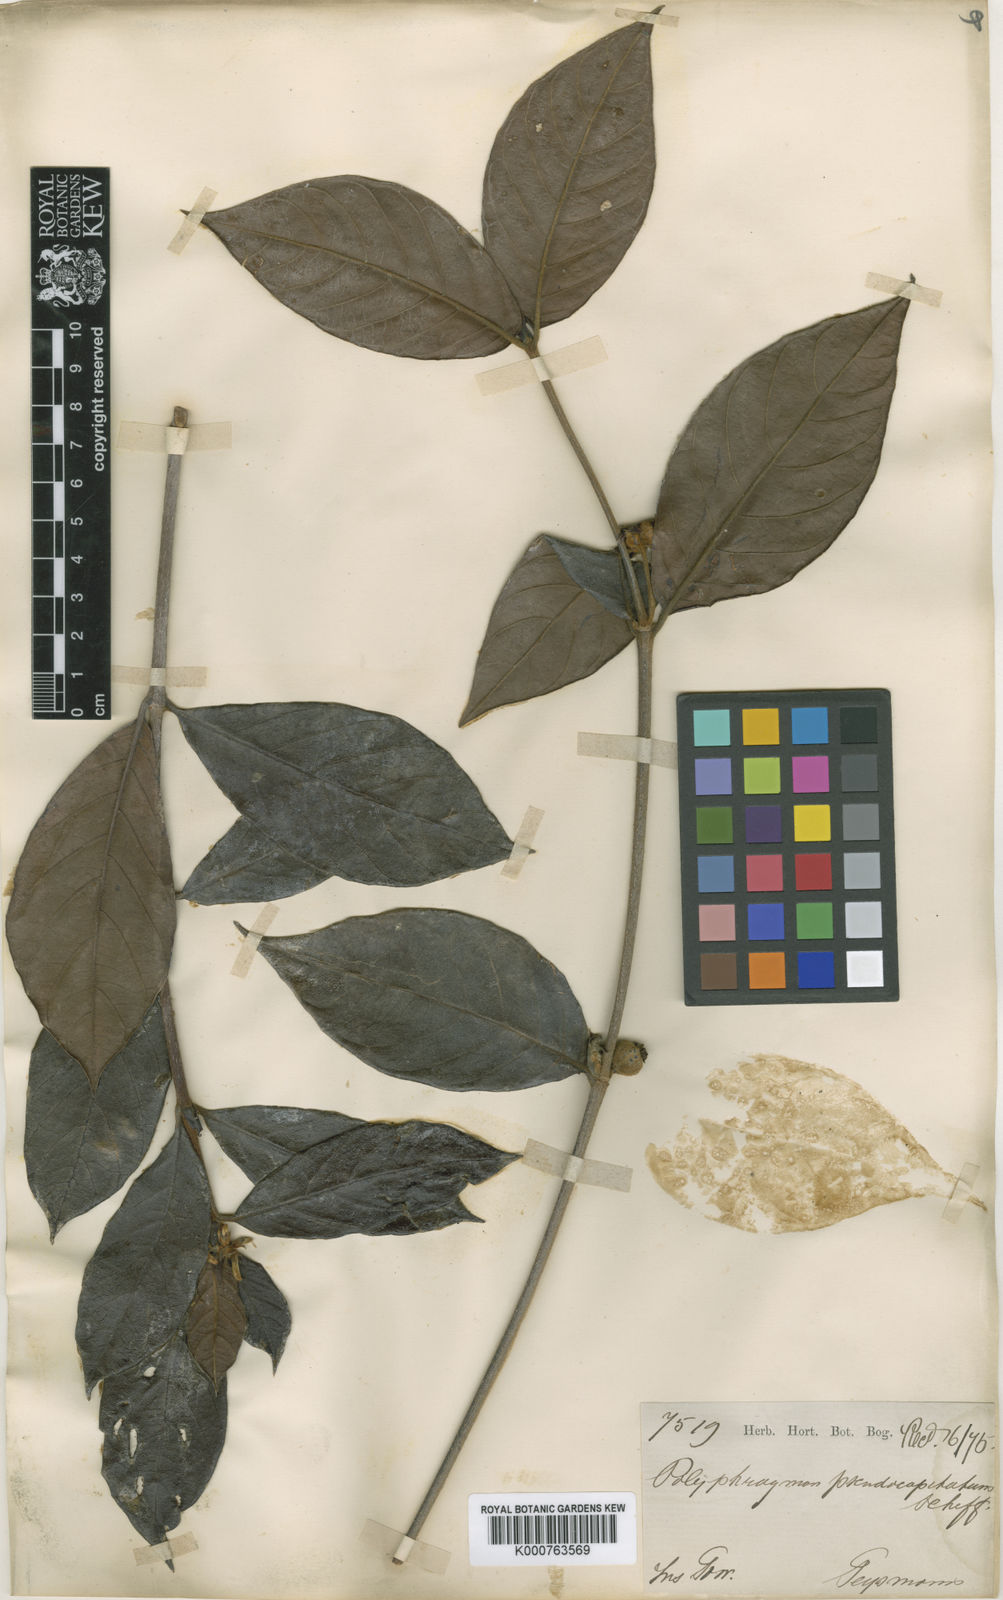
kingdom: Plantae
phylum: Tracheophyta
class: Magnoliopsida
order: Gentianales
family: Rubiaceae
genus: Timonius
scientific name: Timonius pseudocapitatus
